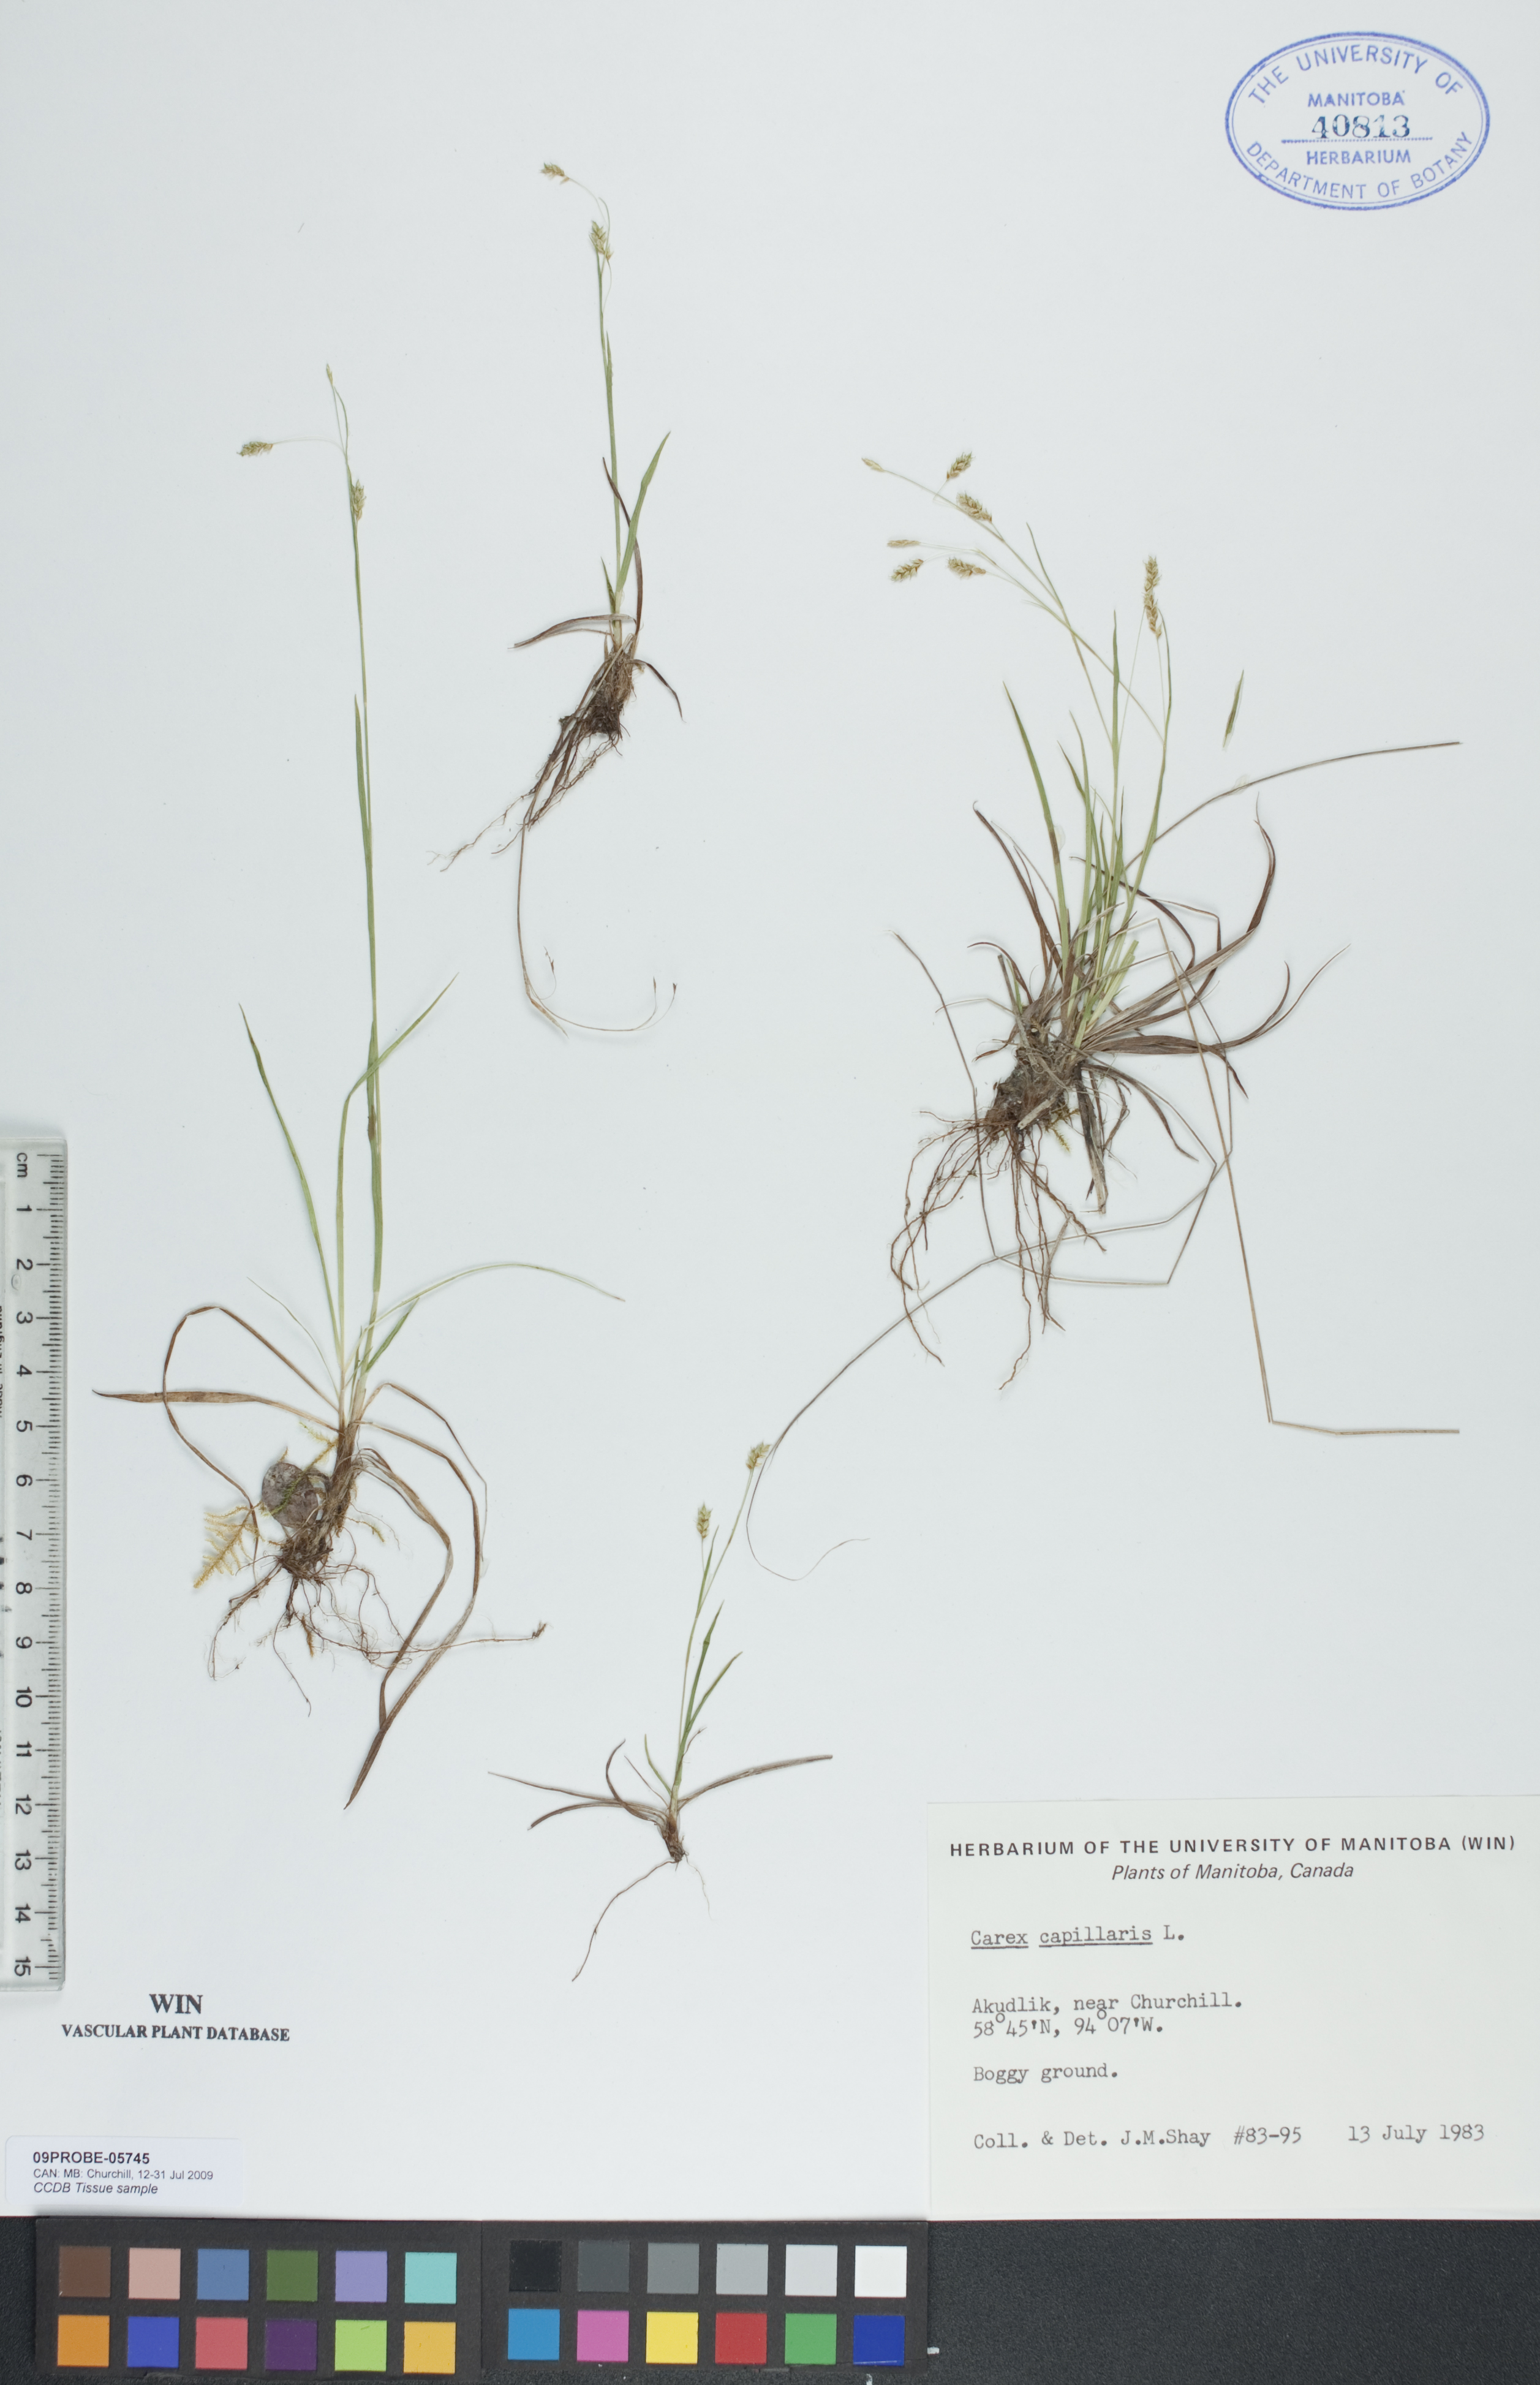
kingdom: Plantae
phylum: Tracheophyta
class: Liliopsida
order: Poales
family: Cyperaceae
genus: Carex
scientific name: Carex capillaris
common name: Hair sedge
